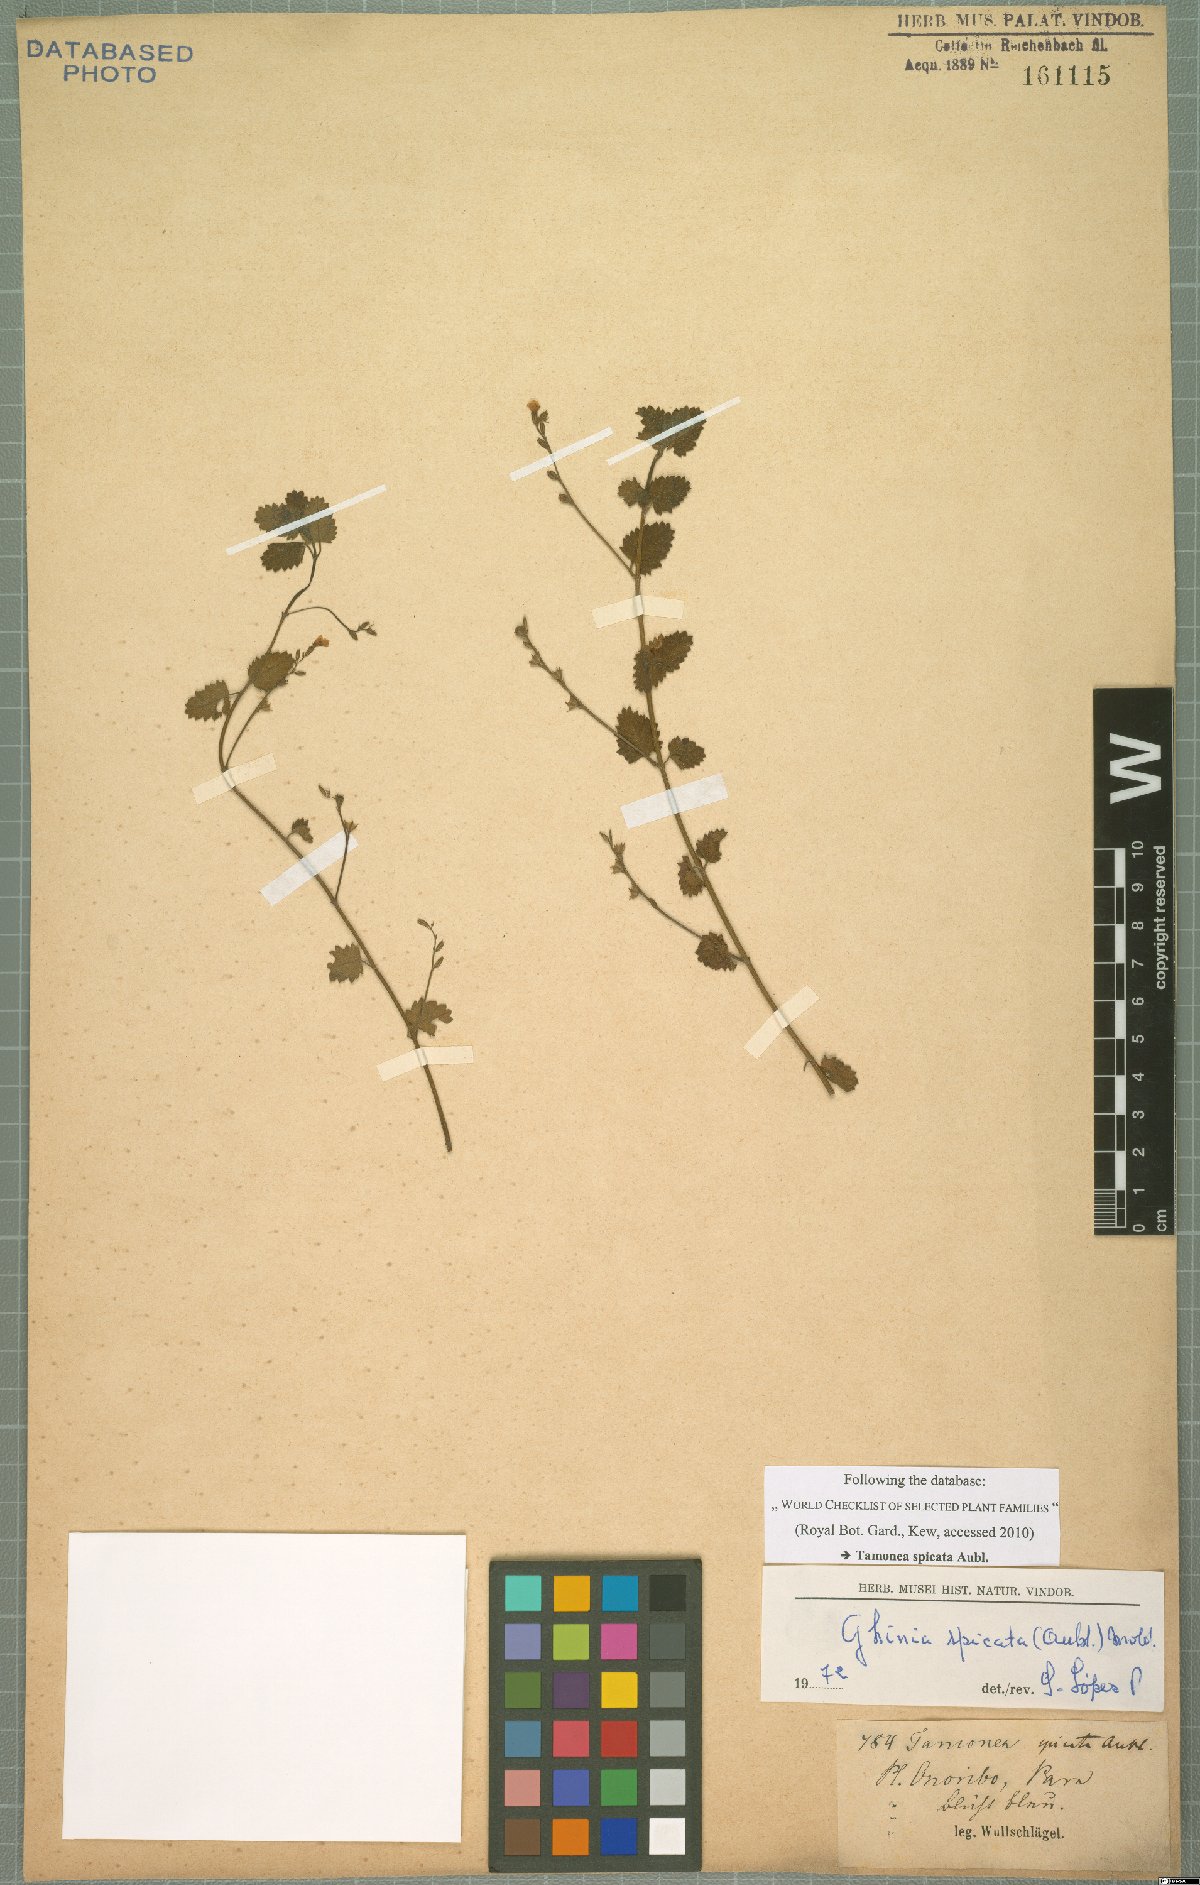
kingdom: Plantae
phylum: Tracheophyta
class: Magnoliopsida
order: Lamiales
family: Verbenaceae
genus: Tamonea
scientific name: Tamonea spicata
